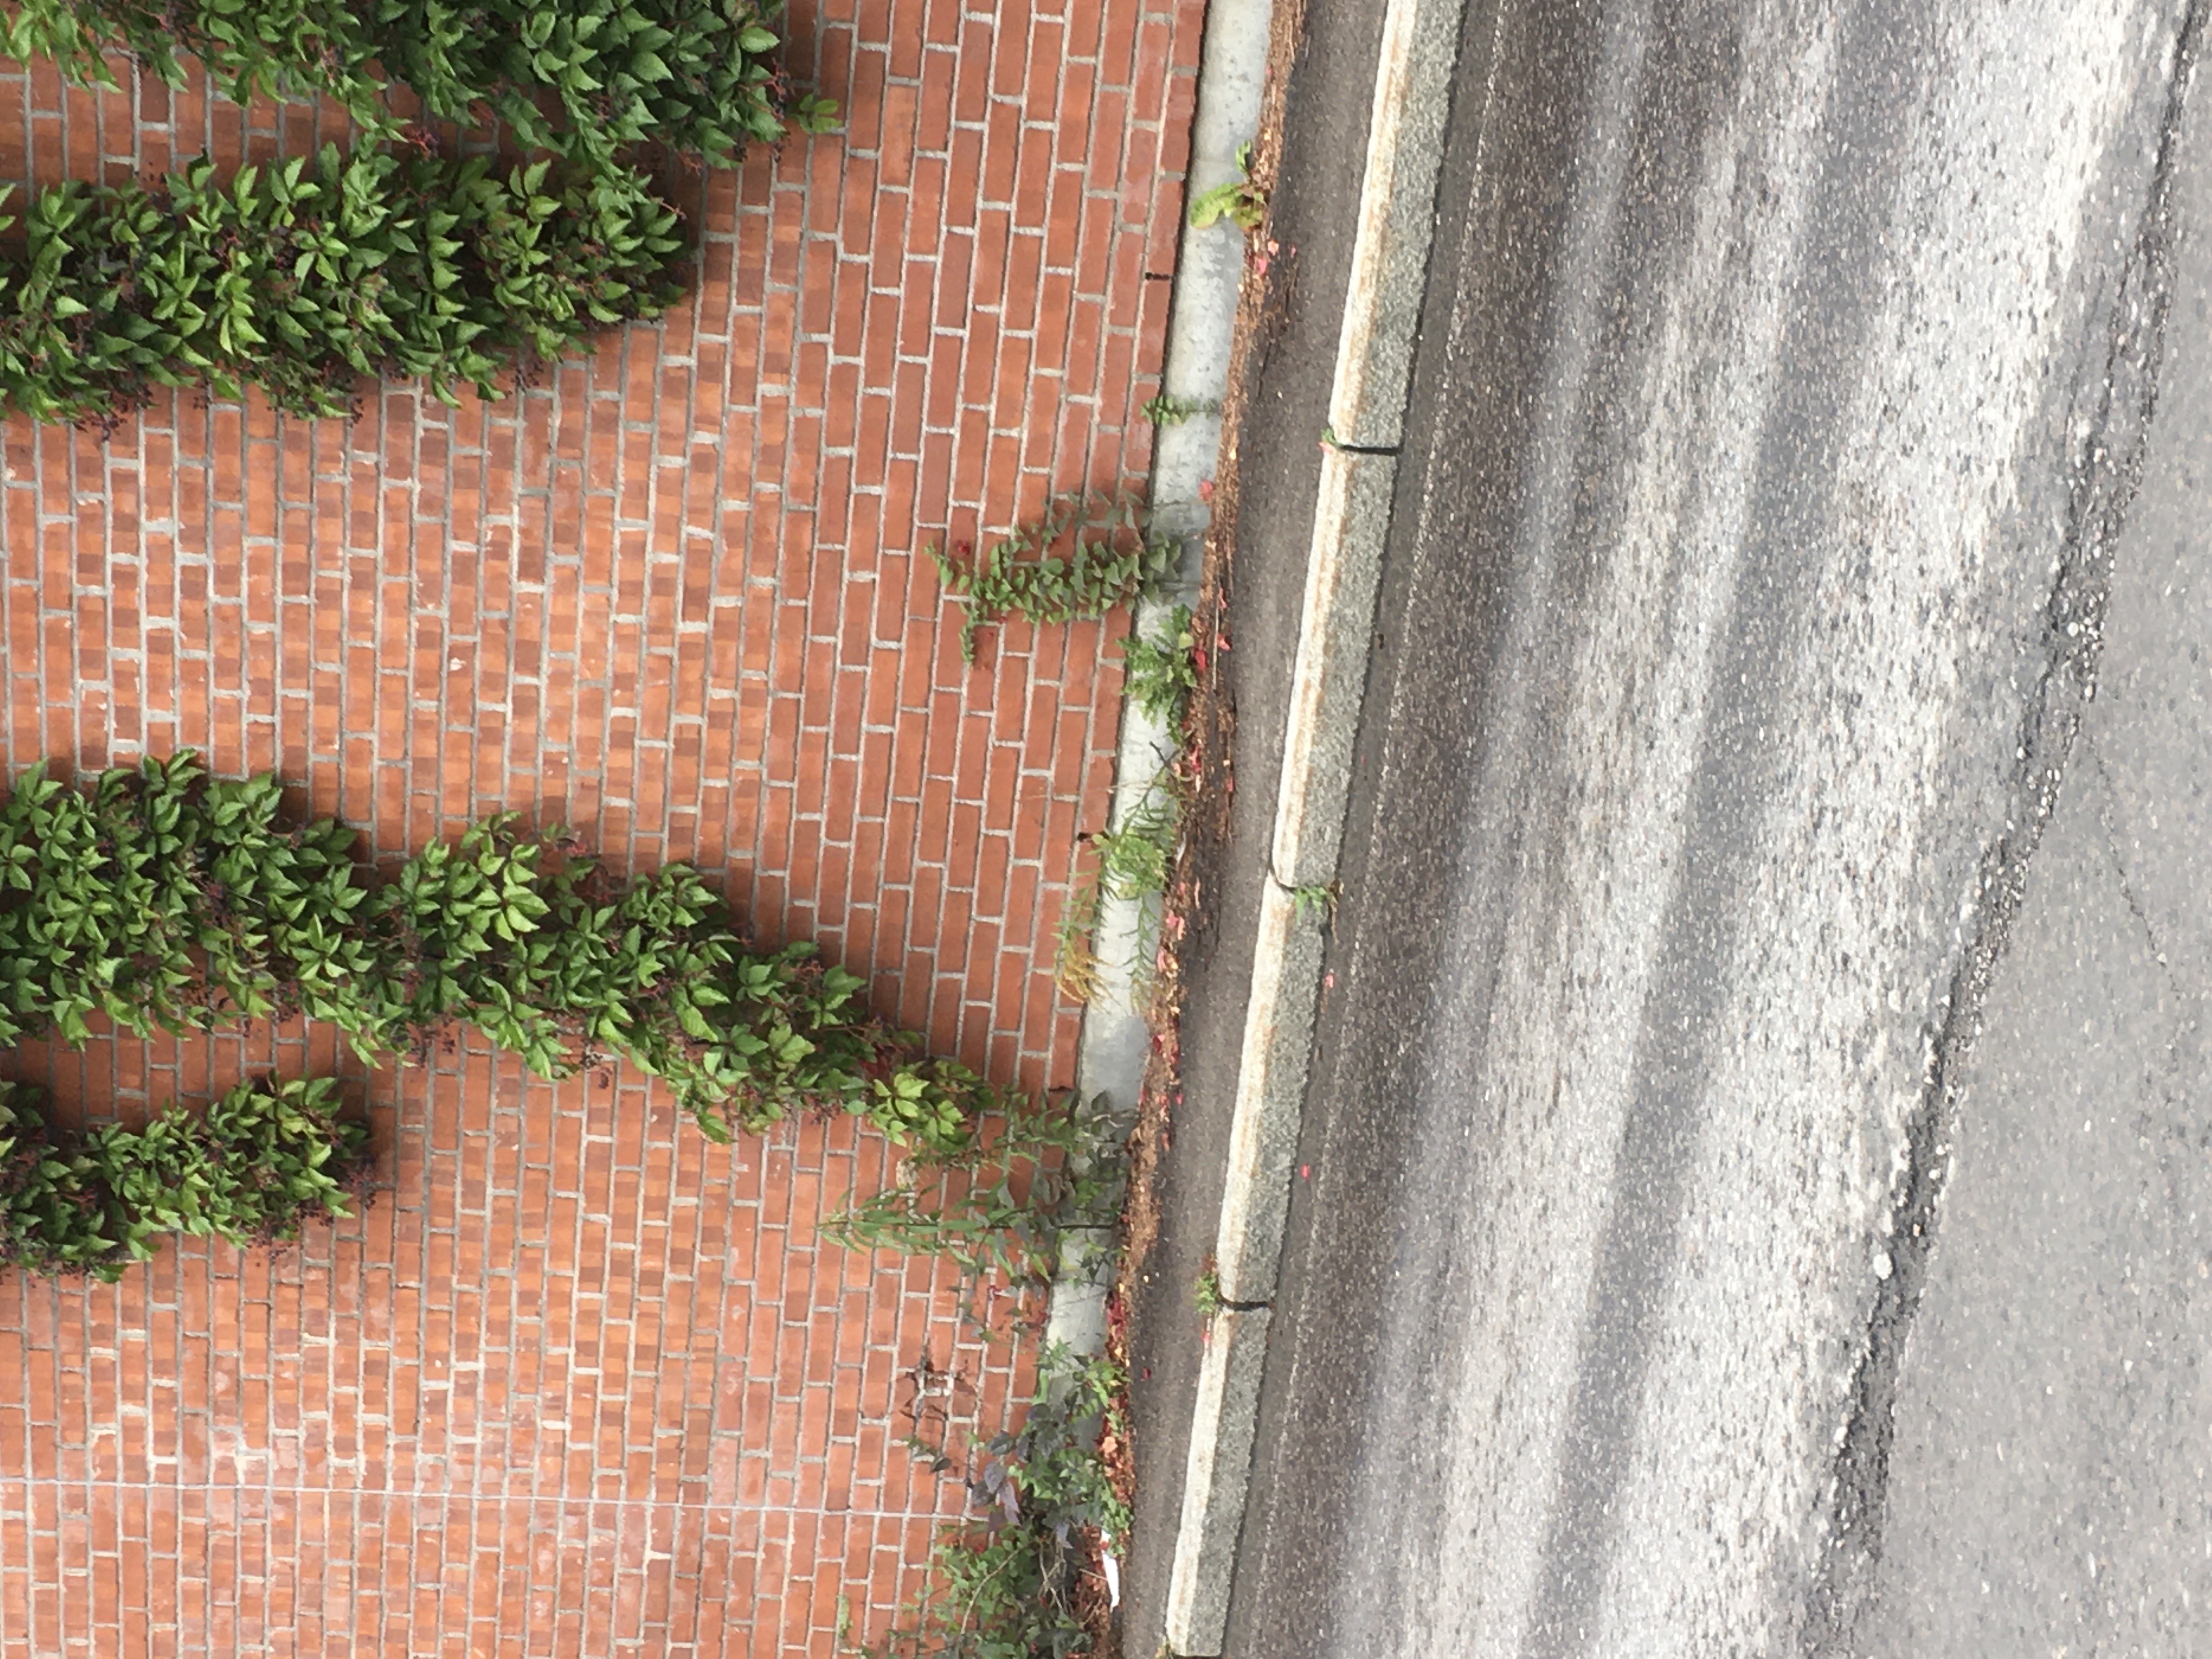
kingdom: Plantae
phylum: Tracheophyta
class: Magnoliopsida
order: Asterales
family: Asteraceae
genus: Solidago
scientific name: Solidago canadensis
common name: kanadagullris
